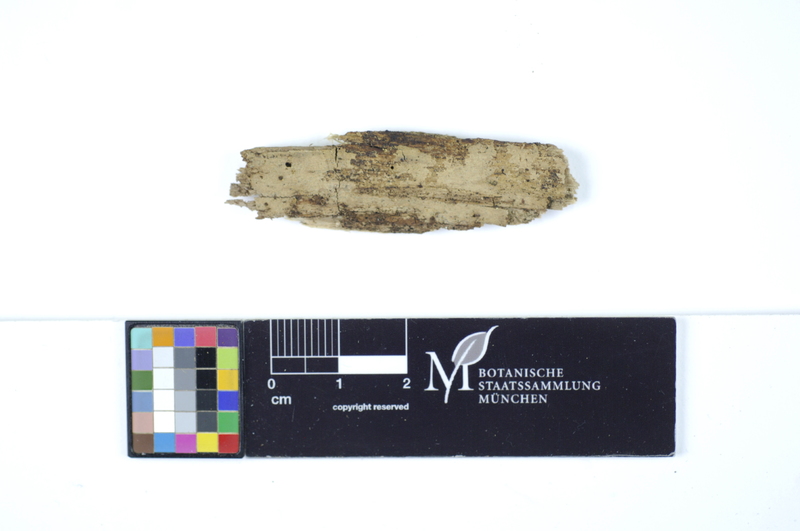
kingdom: Fungi
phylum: Basidiomycota
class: Agaricomycetes
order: Hymenochaetales
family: Rickenellaceae
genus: Peniophorella
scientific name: Peniophorella pallida
